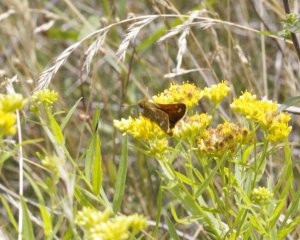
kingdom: Animalia
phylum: Arthropoda
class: Insecta
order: Lepidoptera
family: Hesperiidae
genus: Hesperia
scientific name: Hesperia comma
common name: Common Branded Skipper
